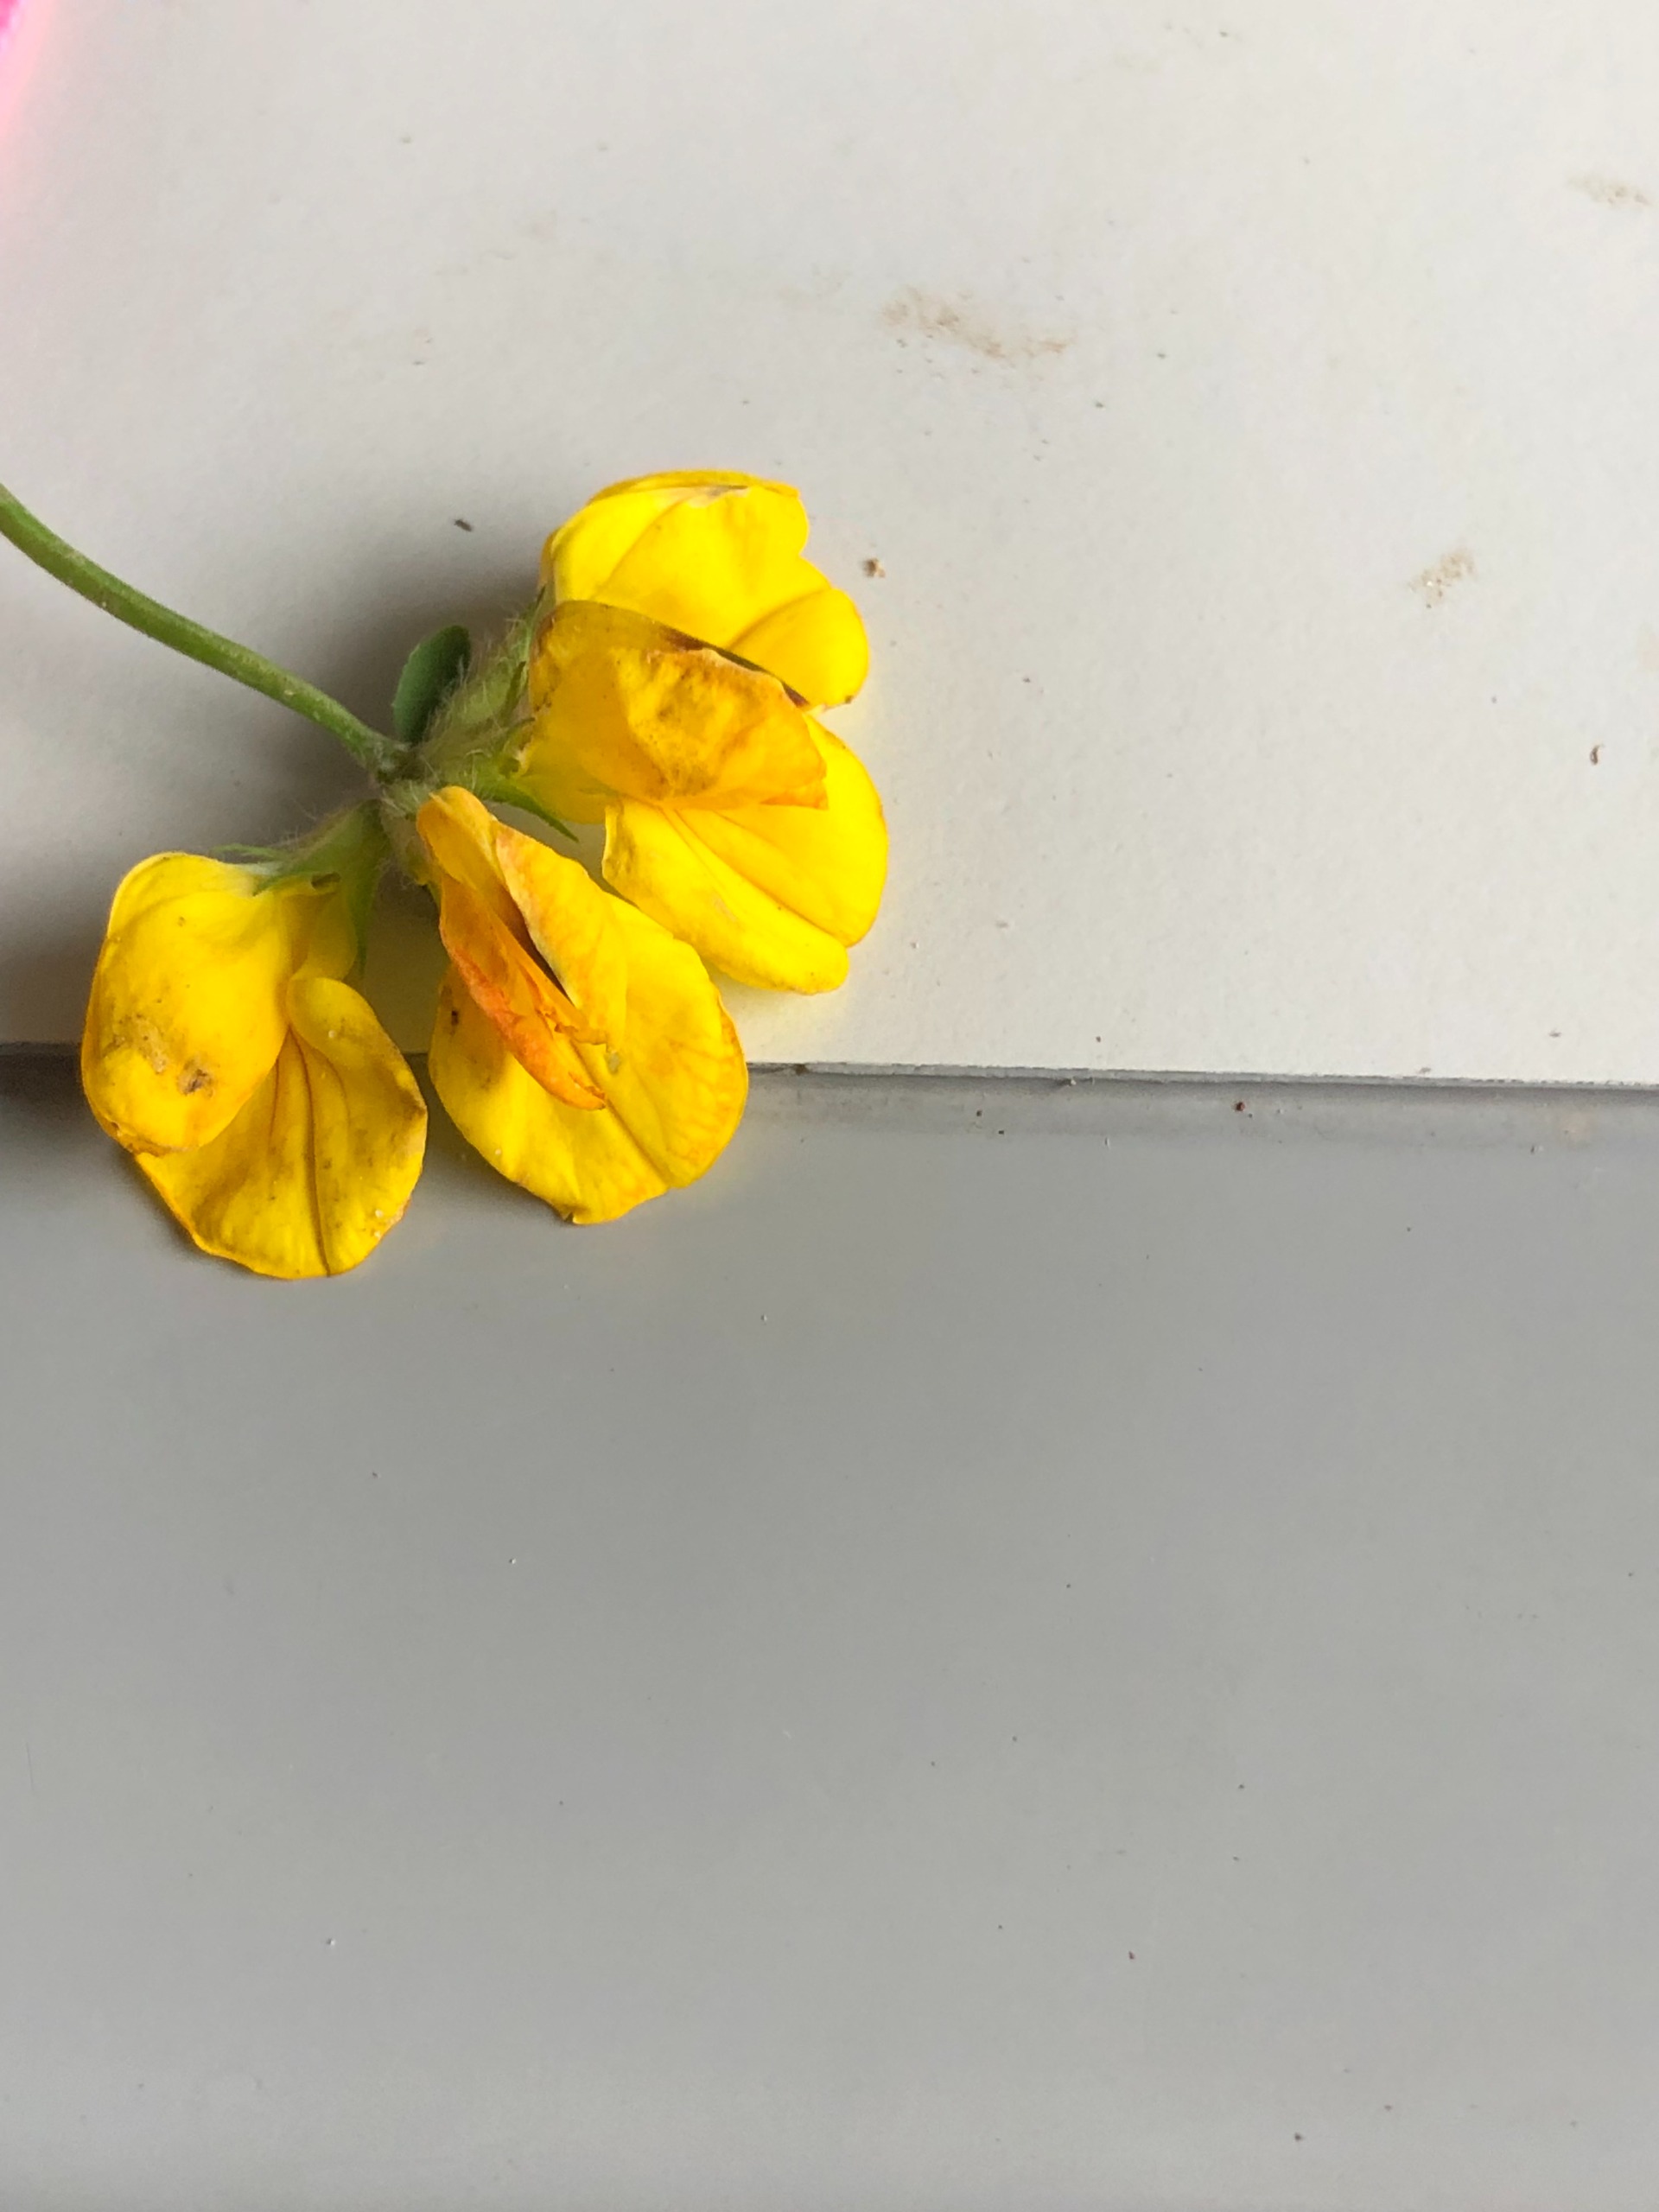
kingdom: Plantae
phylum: Tracheophyta
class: Magnoliopsida
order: Fabales
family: Fabaceae
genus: Lotus
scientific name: Lotus corniculatus
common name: Almindelig kællingetand
